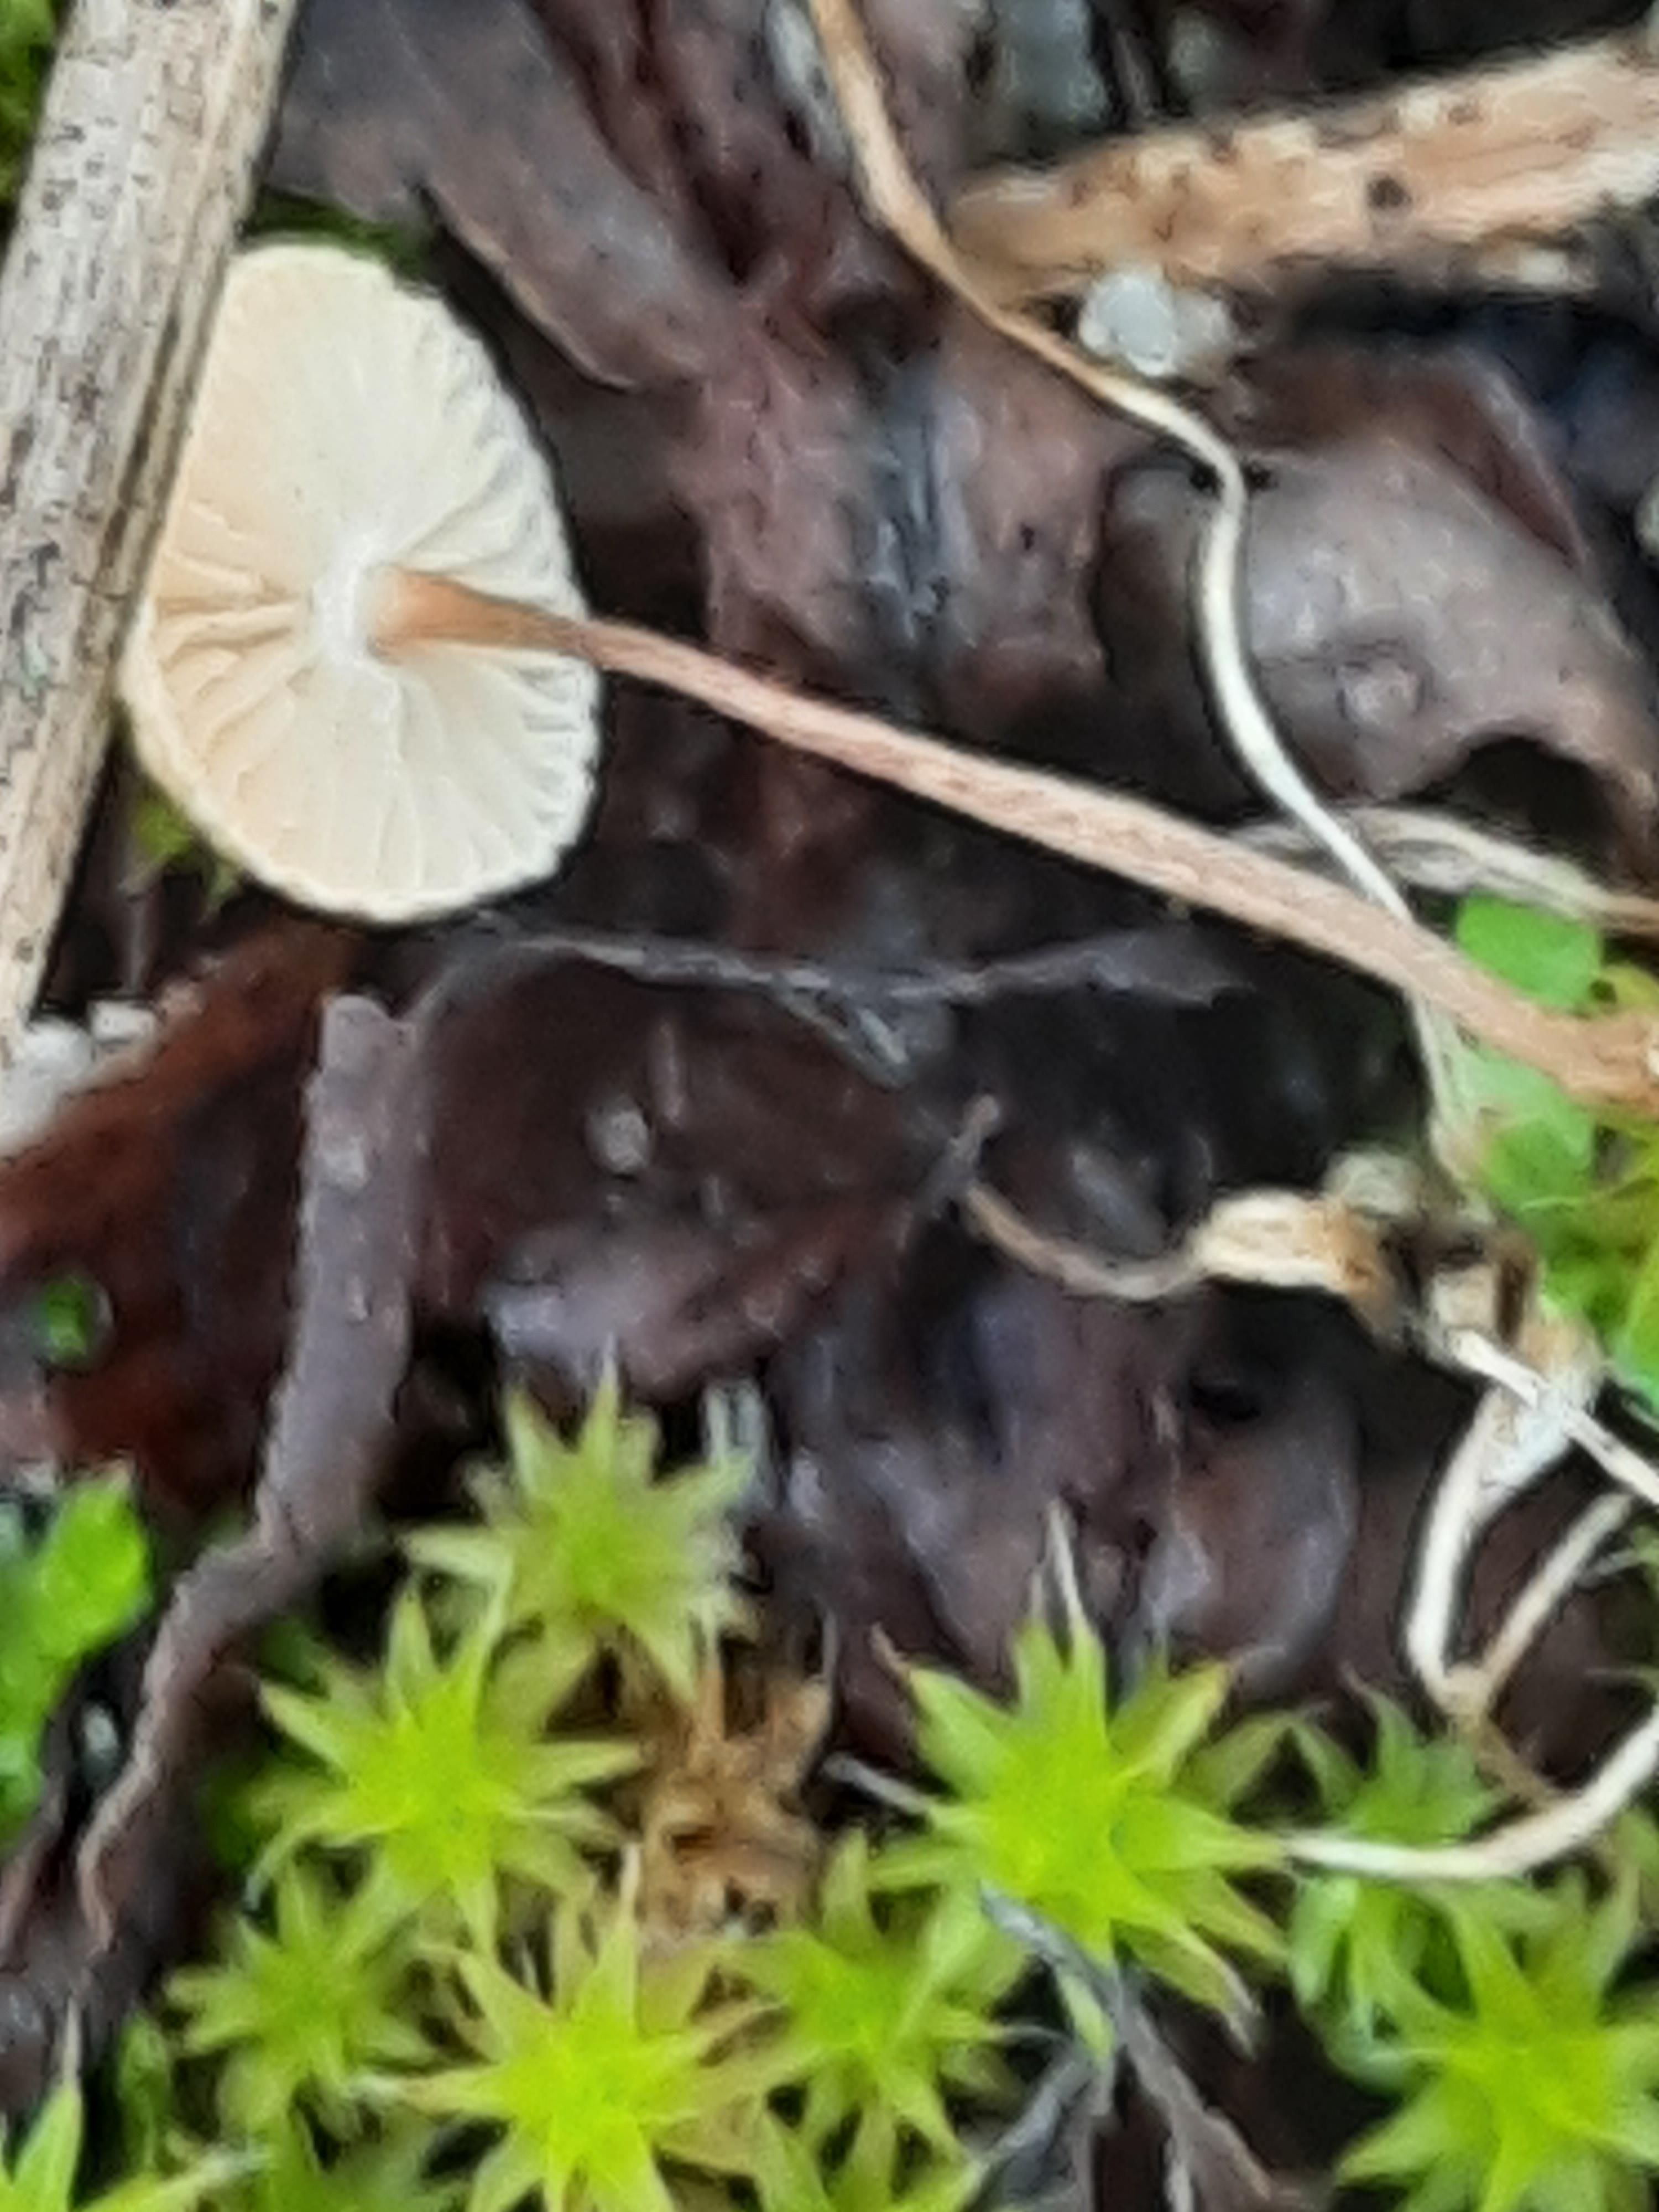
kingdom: Fungi
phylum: Basidiomycota
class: Agaricomycetes
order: Agaricales
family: Marasmiaceae
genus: Crinipellis
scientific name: Crinipellis scabella
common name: børstefod
